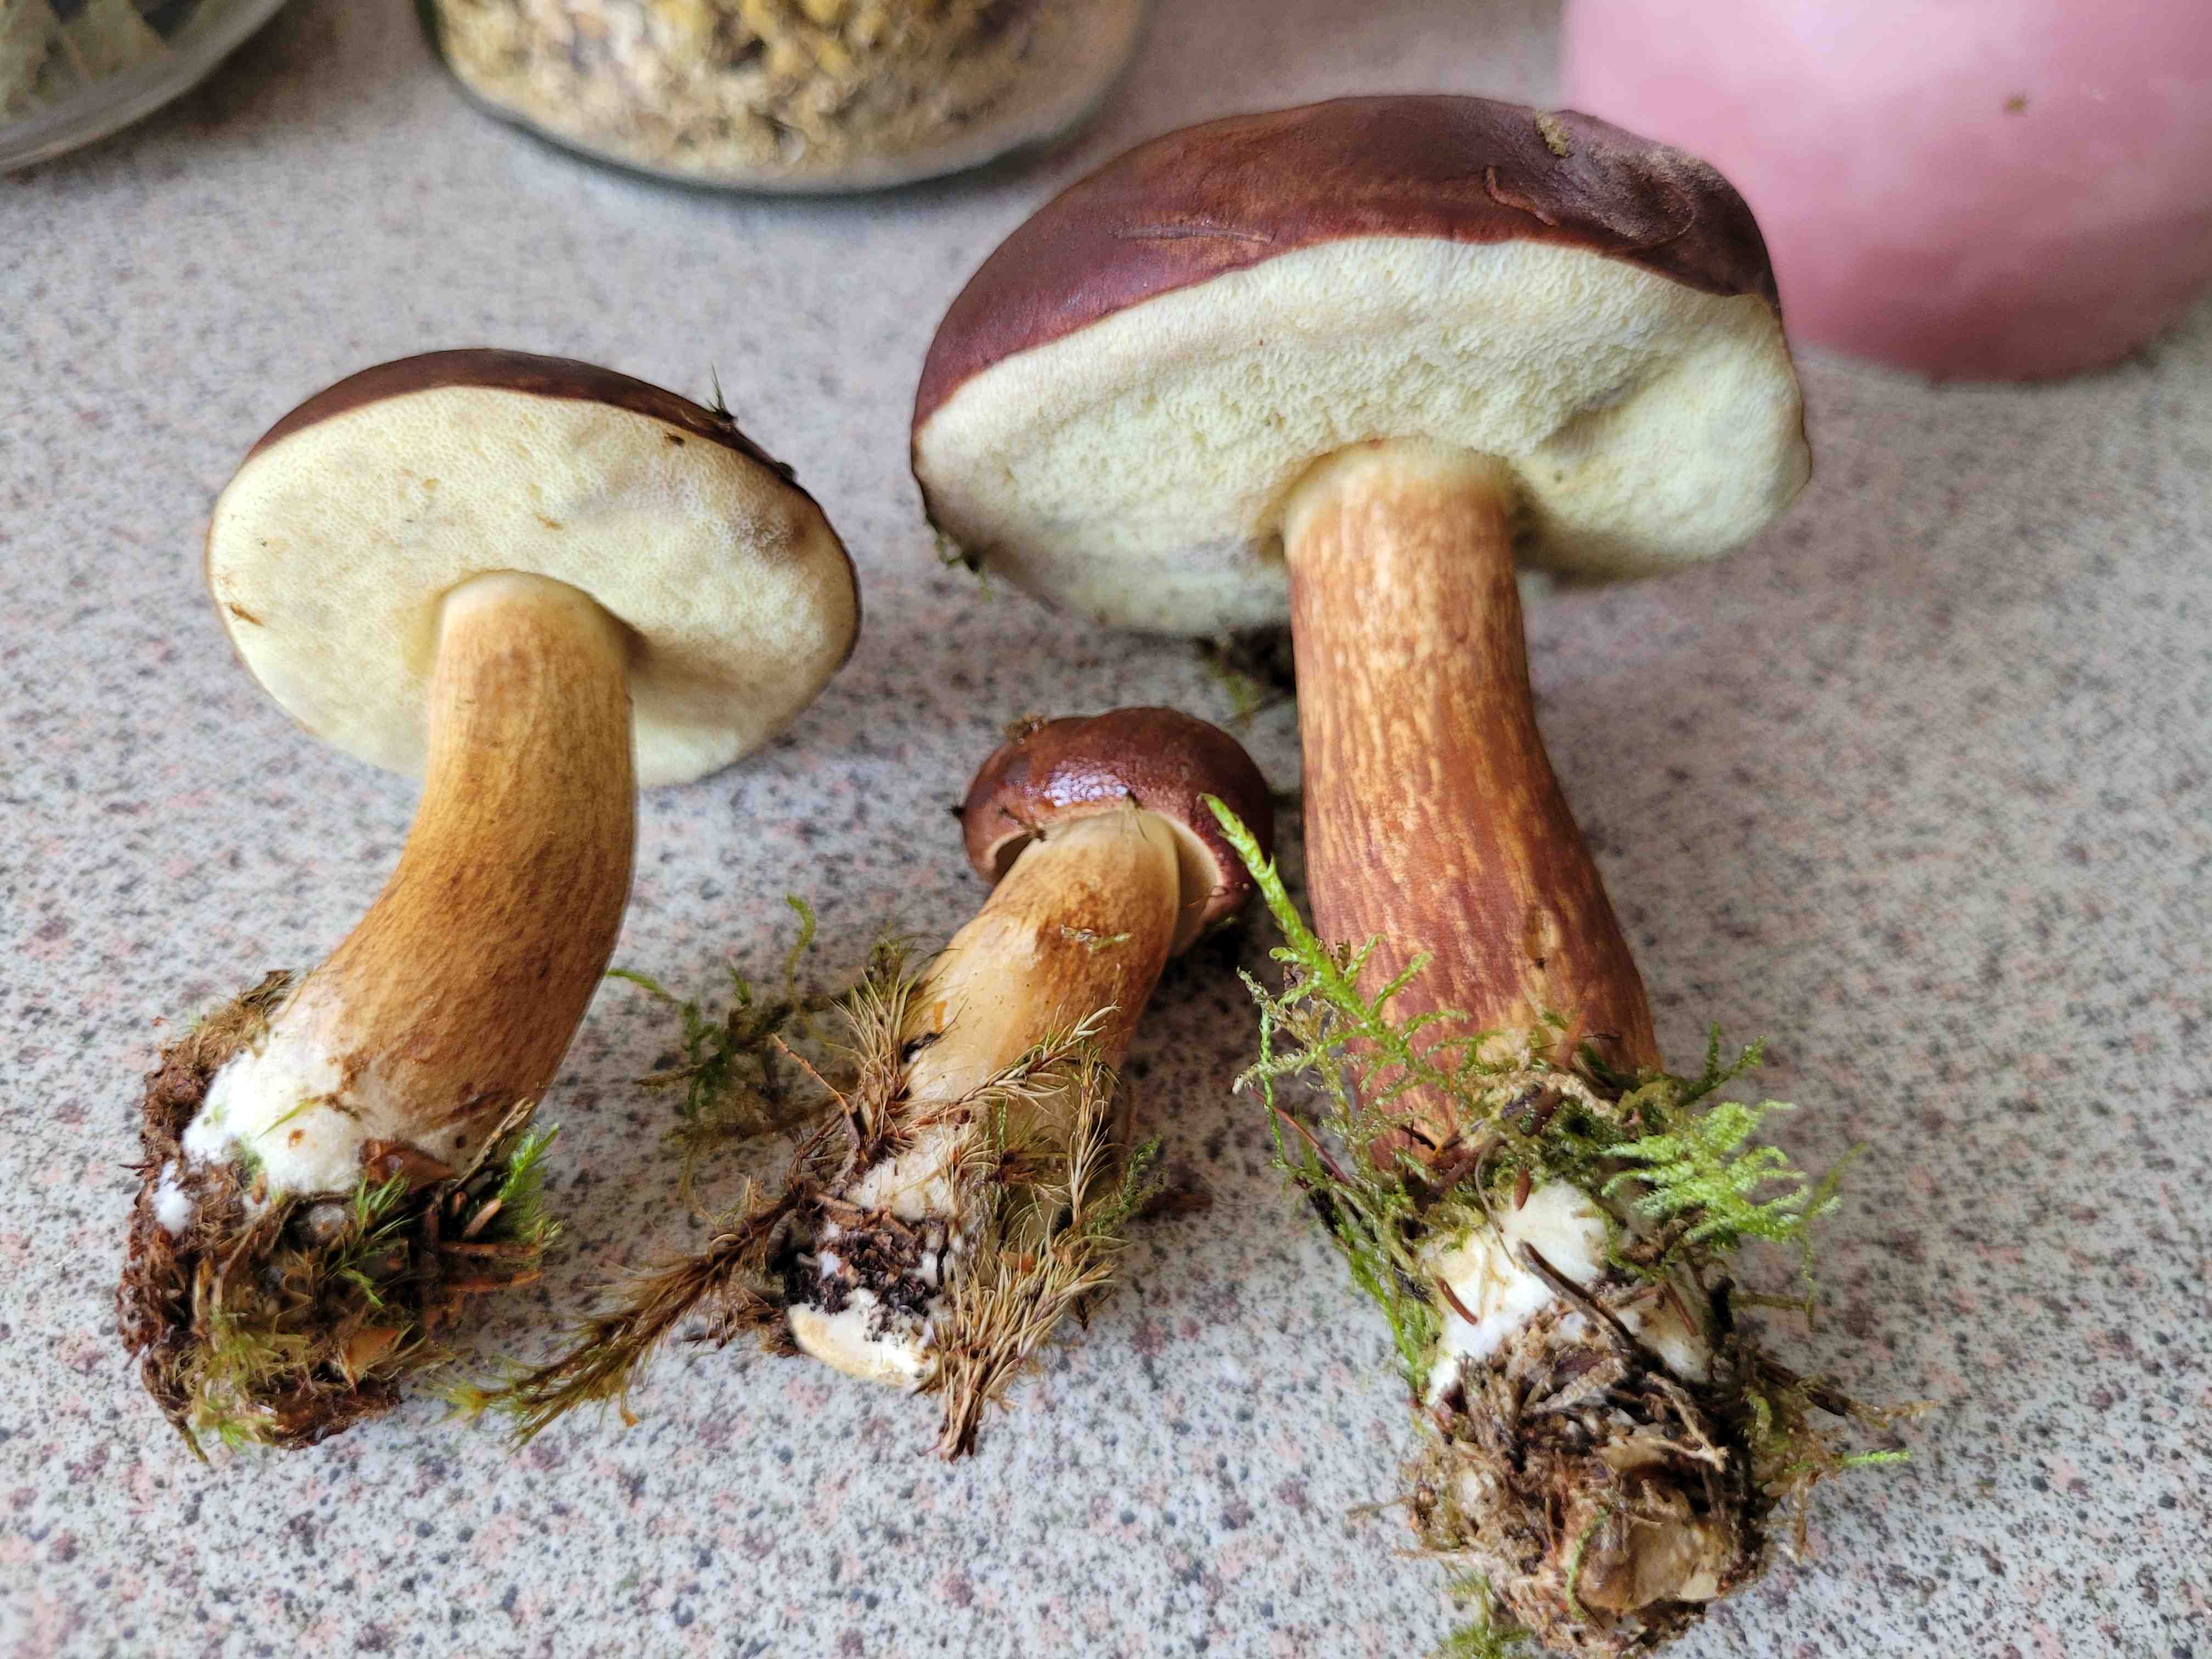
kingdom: Fungi
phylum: Basidiomycota
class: Agaricomycetes
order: Boletales
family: Boletaceae
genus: Imleria
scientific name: Imleria badia
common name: brunstokket rørhat
